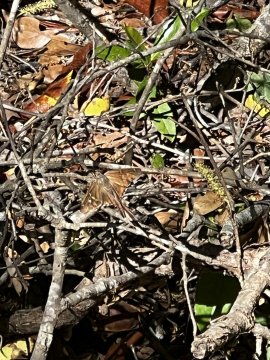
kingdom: Animalia
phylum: Arthropoda
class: Insecta
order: Lepidoptera
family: Hesperiidae
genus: Chioides
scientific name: Chioides catillus
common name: White-striped Longtail
